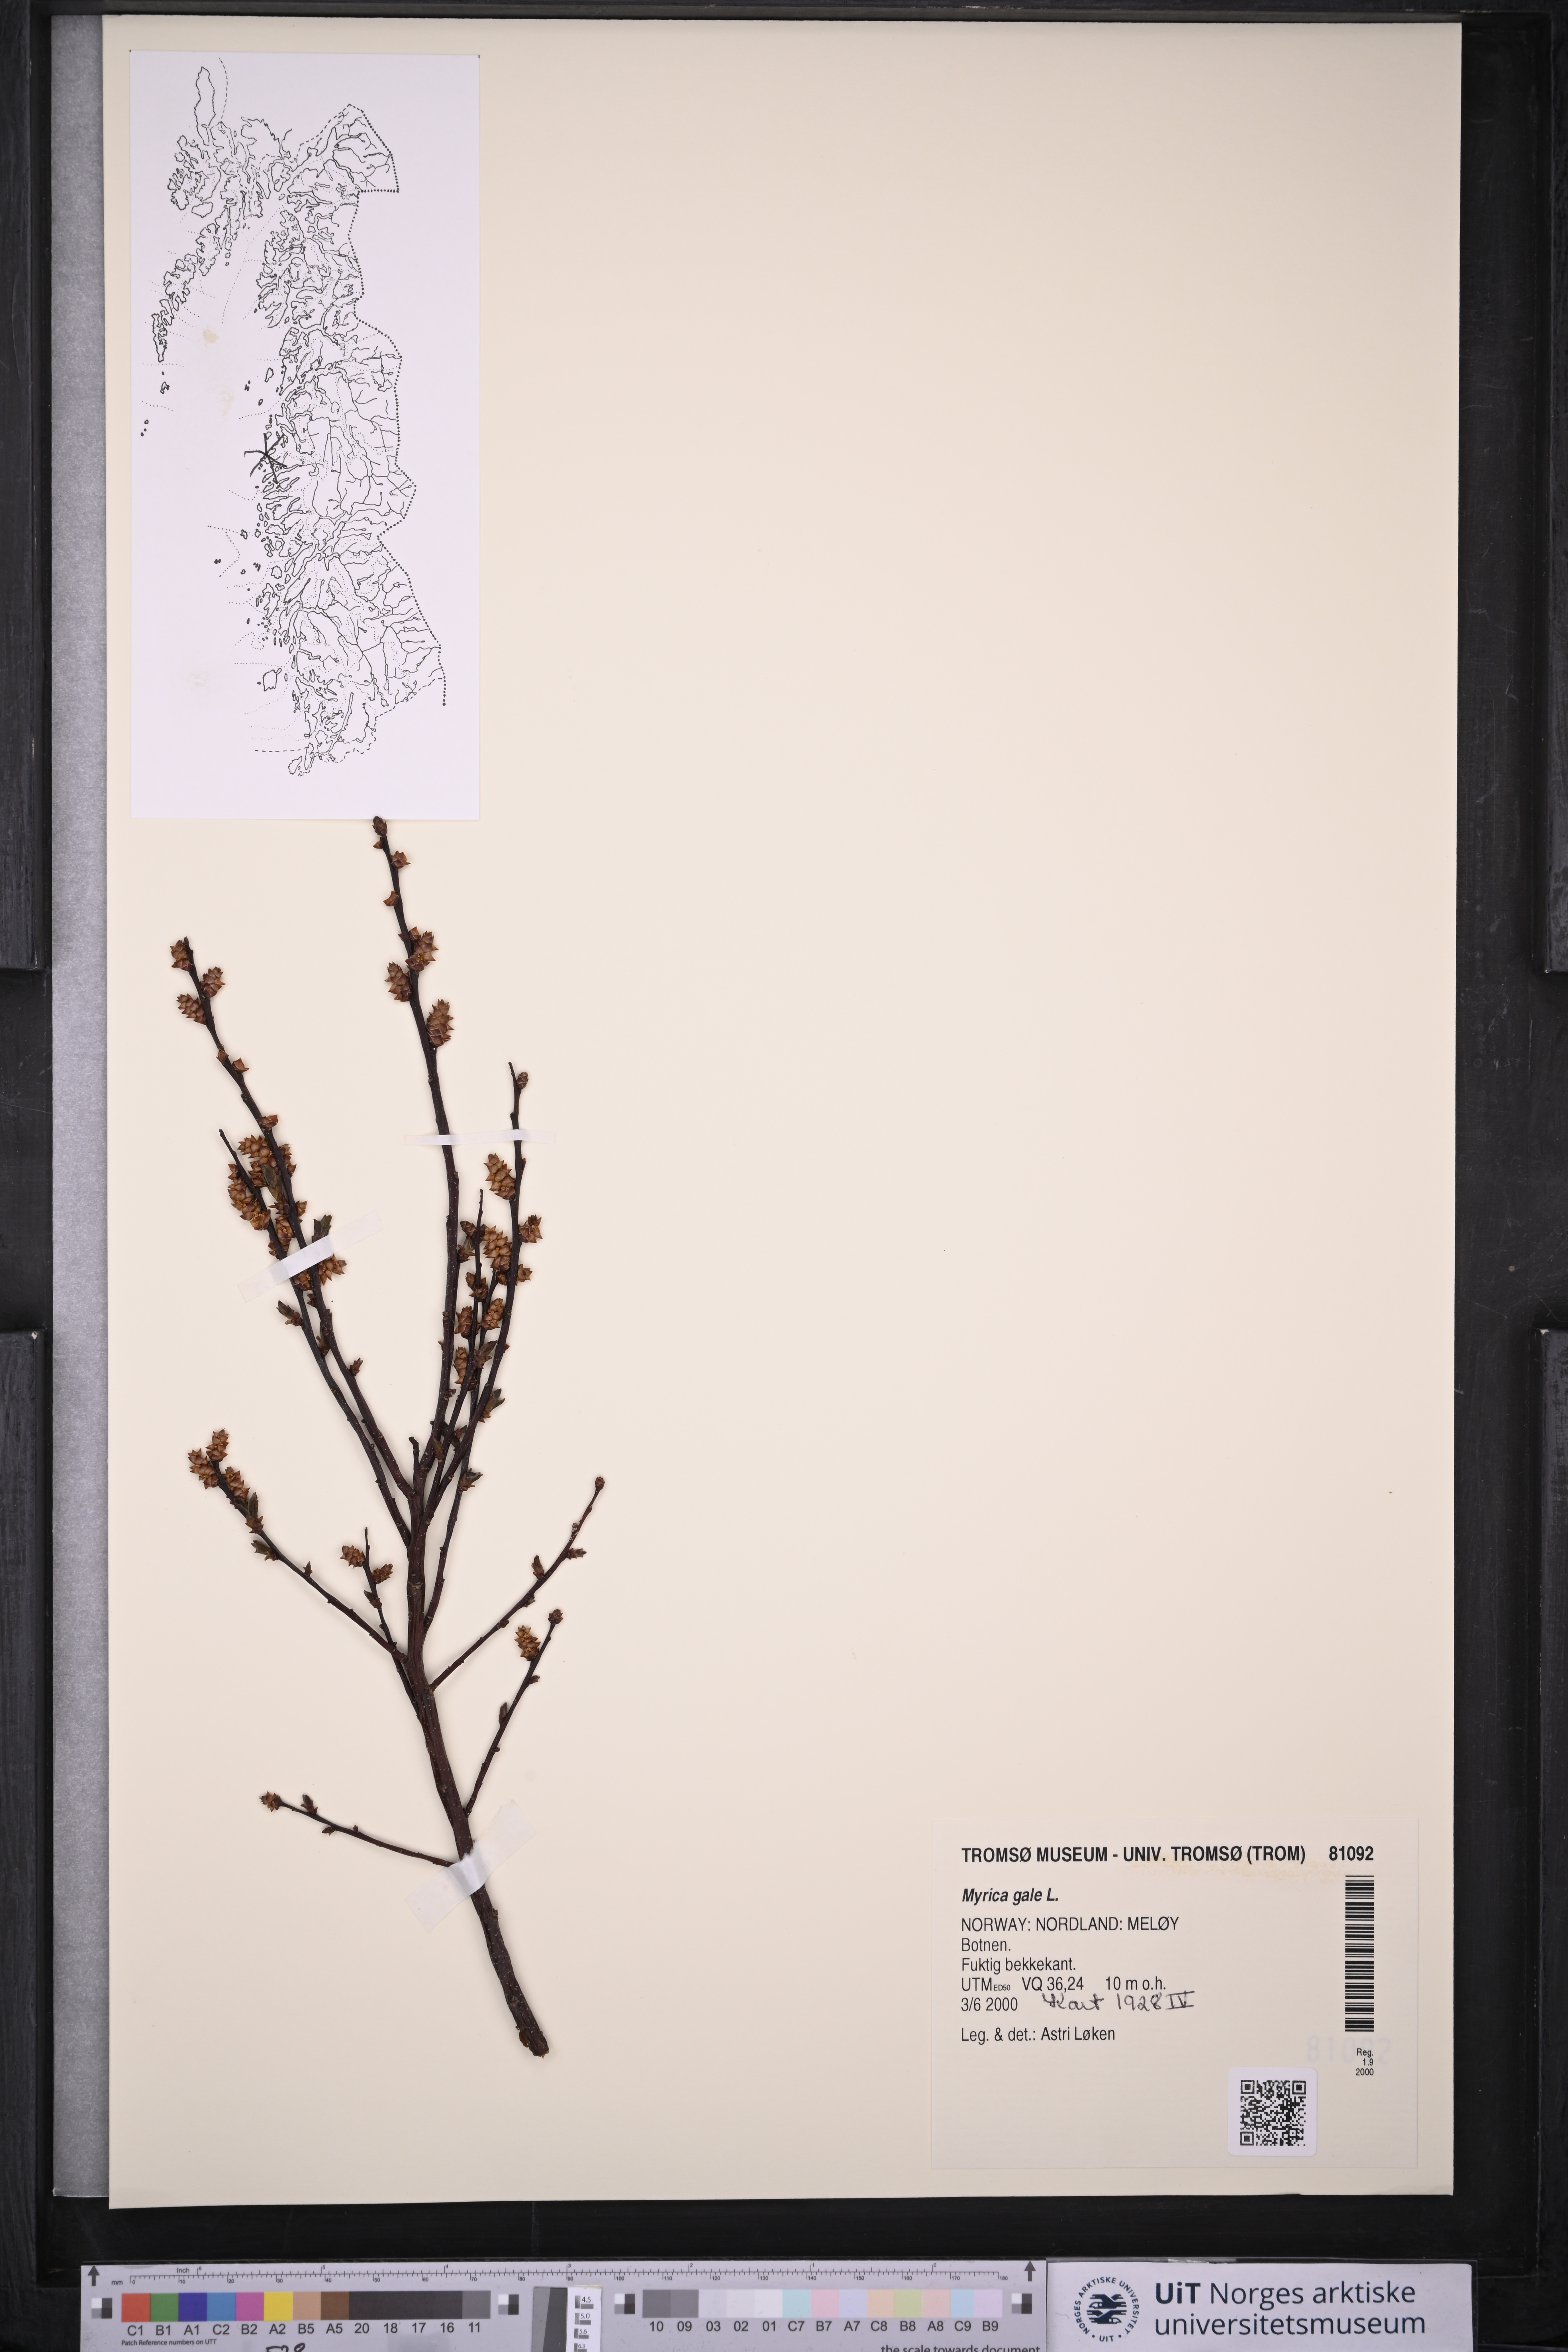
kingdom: Plantae
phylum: Tracheophyta
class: Magnoliopsida
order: Fagales
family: Myricaceae
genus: Myrica
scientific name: Myrica gale
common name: Sweet gale
